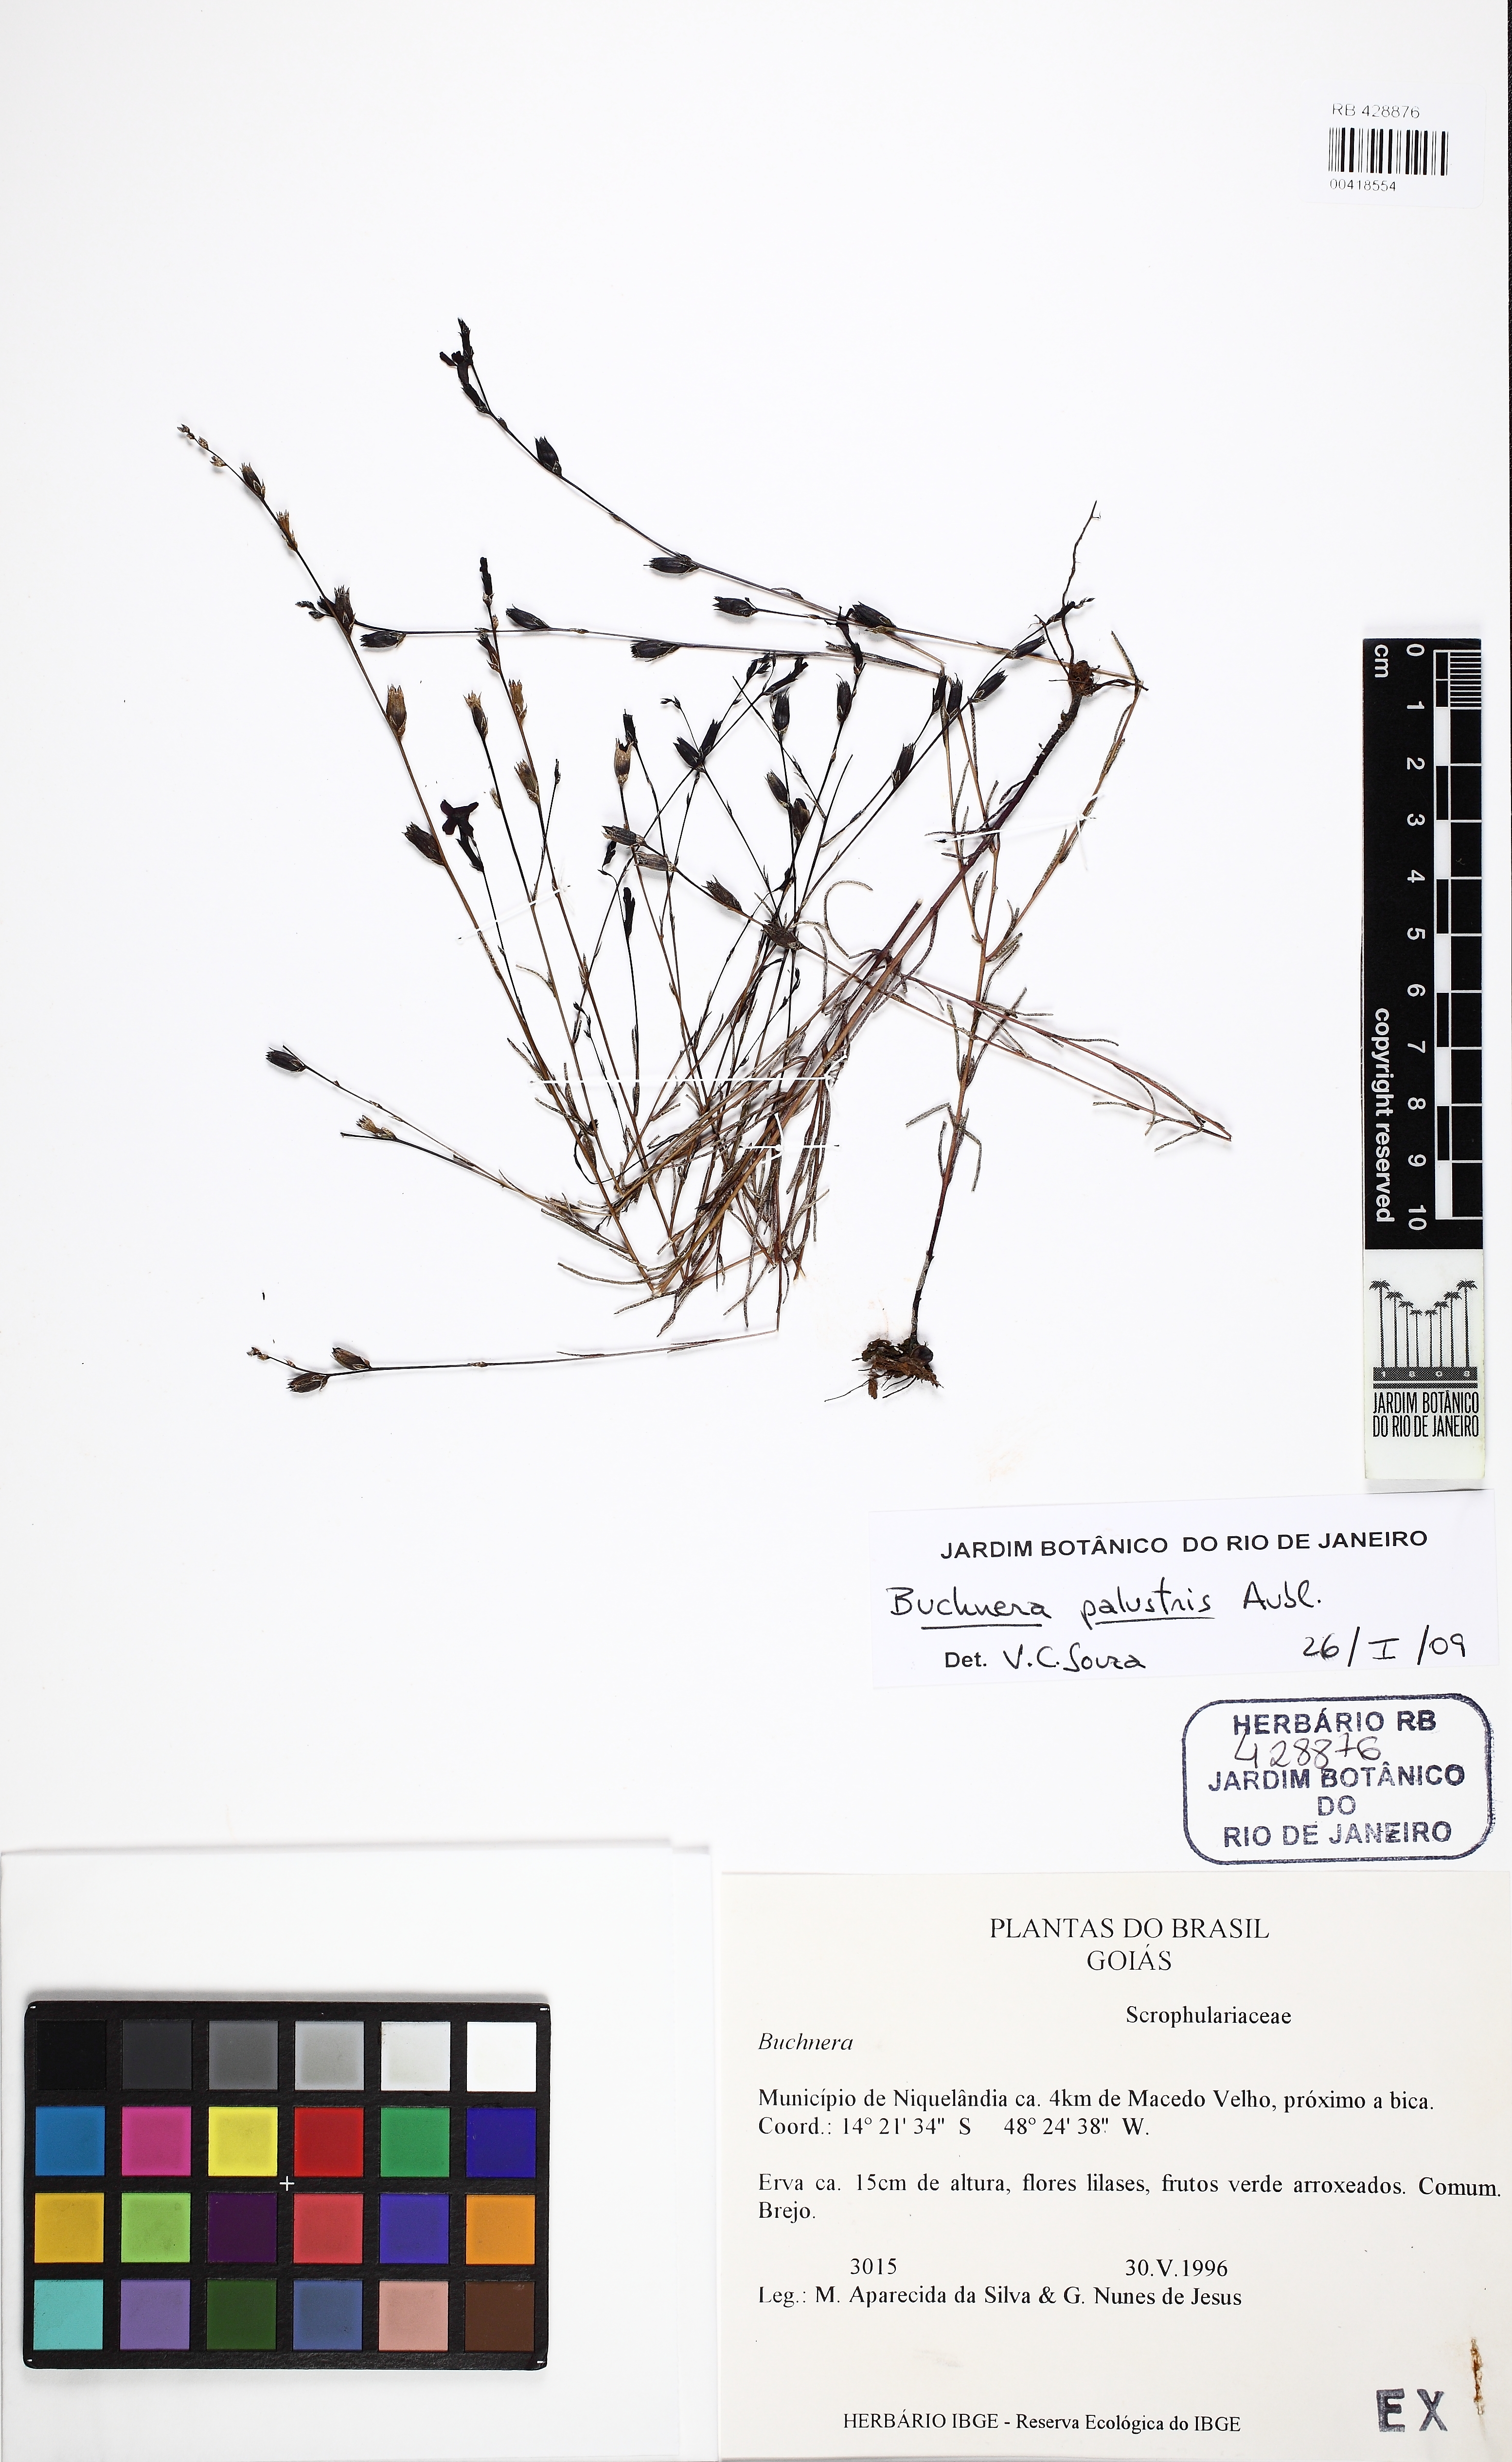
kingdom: Plantae
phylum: Tracheophyta
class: Magnoliopsida
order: Lamiales
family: Orobanchaceae
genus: Buchnera
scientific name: Buchnera palustris
